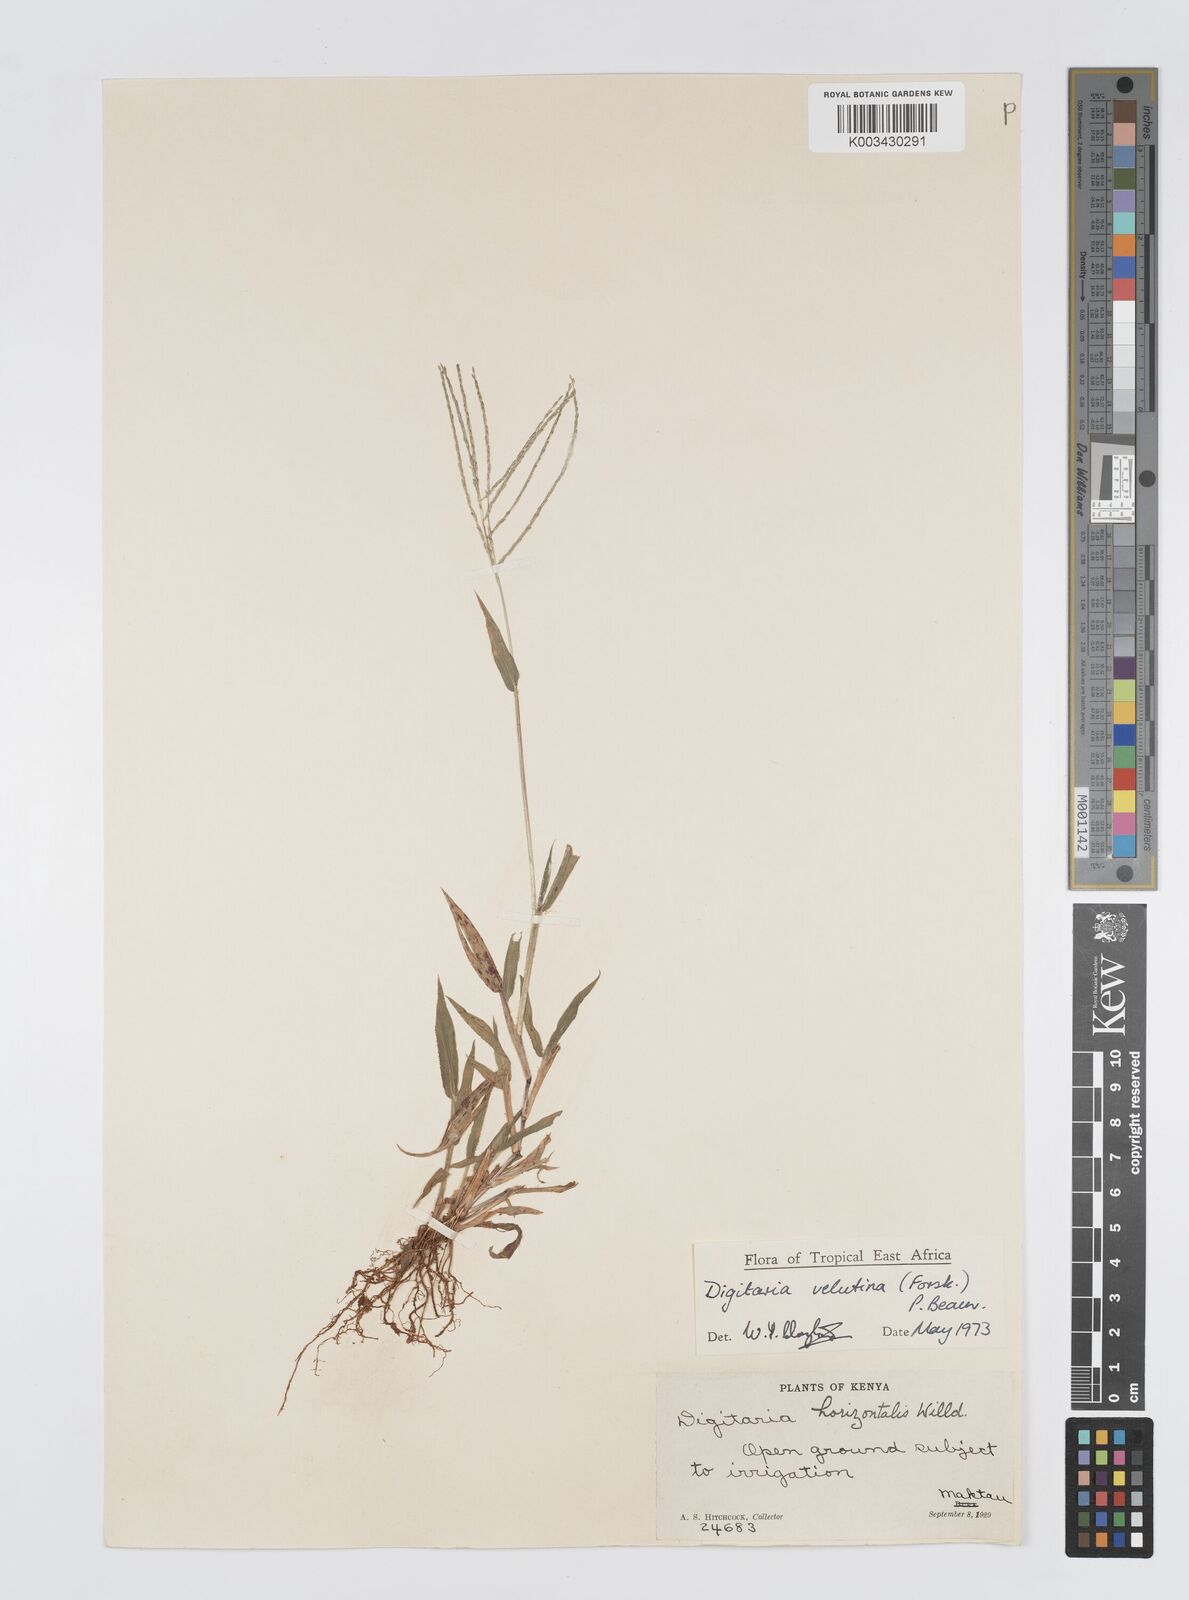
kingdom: Plantae
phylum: Tracheophyta
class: Liliopsida
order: Poales
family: Poaceae
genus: Digitaria
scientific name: Digitaria velutina
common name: Long-plume finger grass
